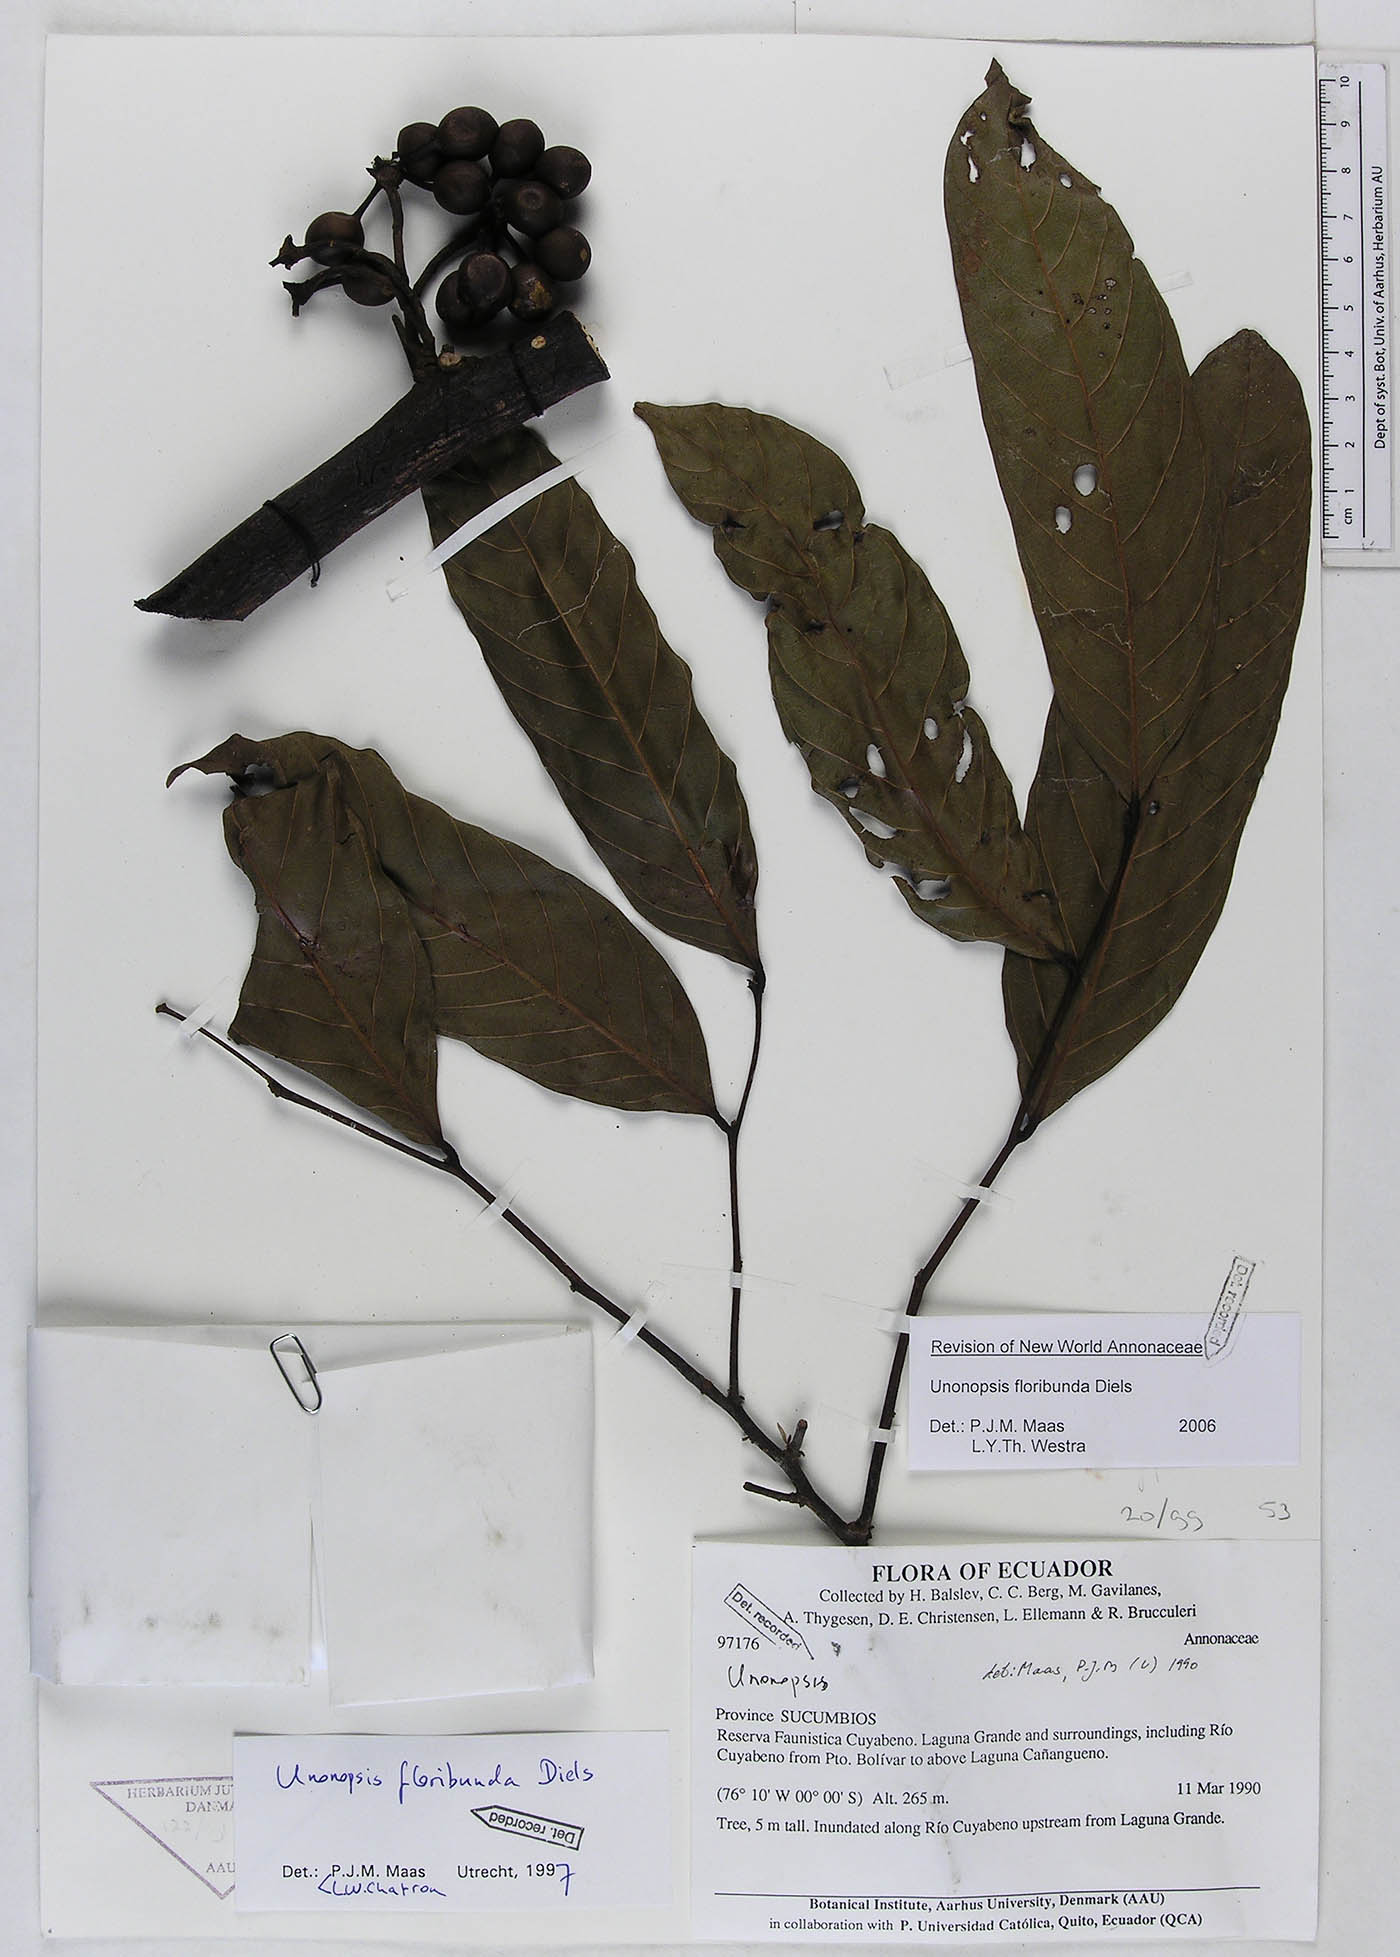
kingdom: Plantae
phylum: Tracheophyta
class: Magnoliopsida
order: Magnoliales
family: Annonaceae
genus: Unonopsis
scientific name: Unonopsis floribunda
